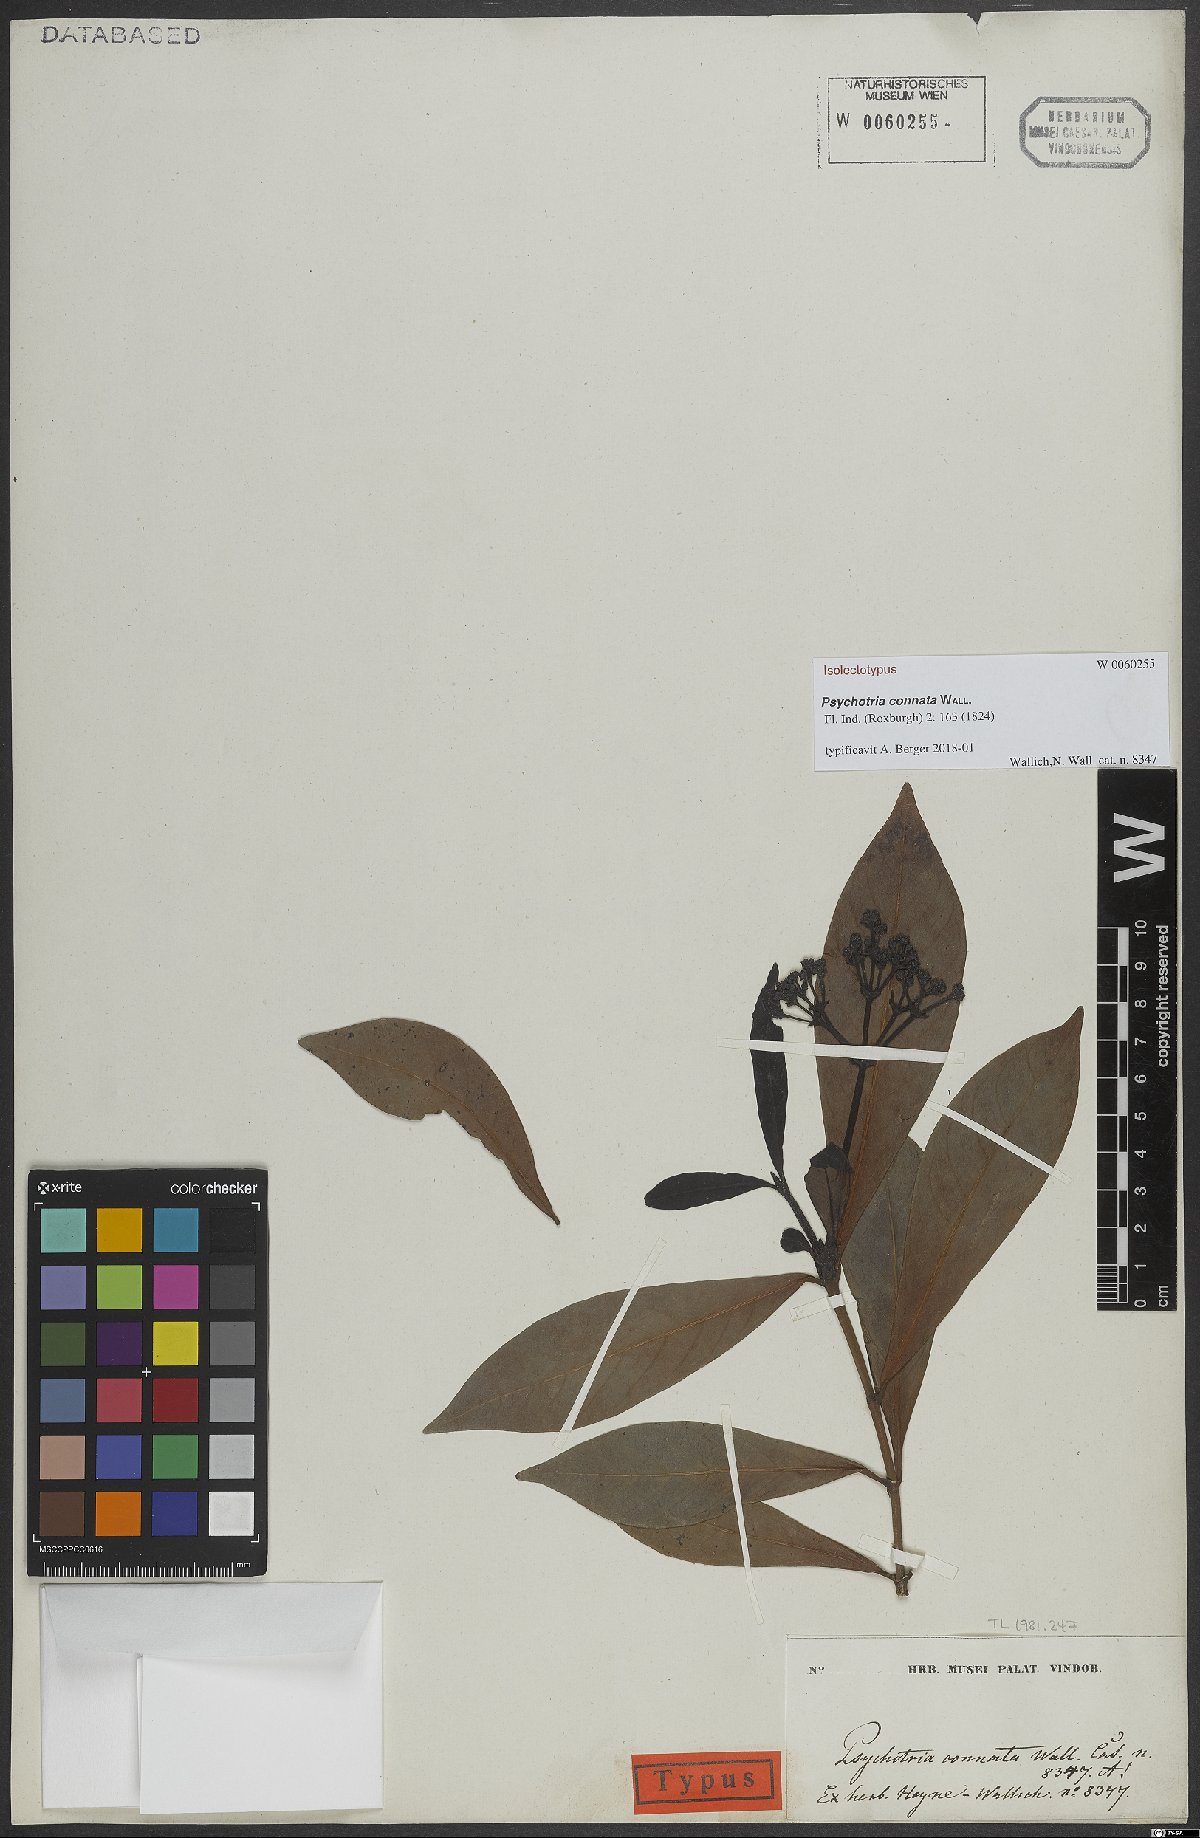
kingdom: Plantae
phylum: Tracheophyta
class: Magnoliopsida
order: Gentianales
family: Rubiaceae
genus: Psychotria
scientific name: Psychotria connata
